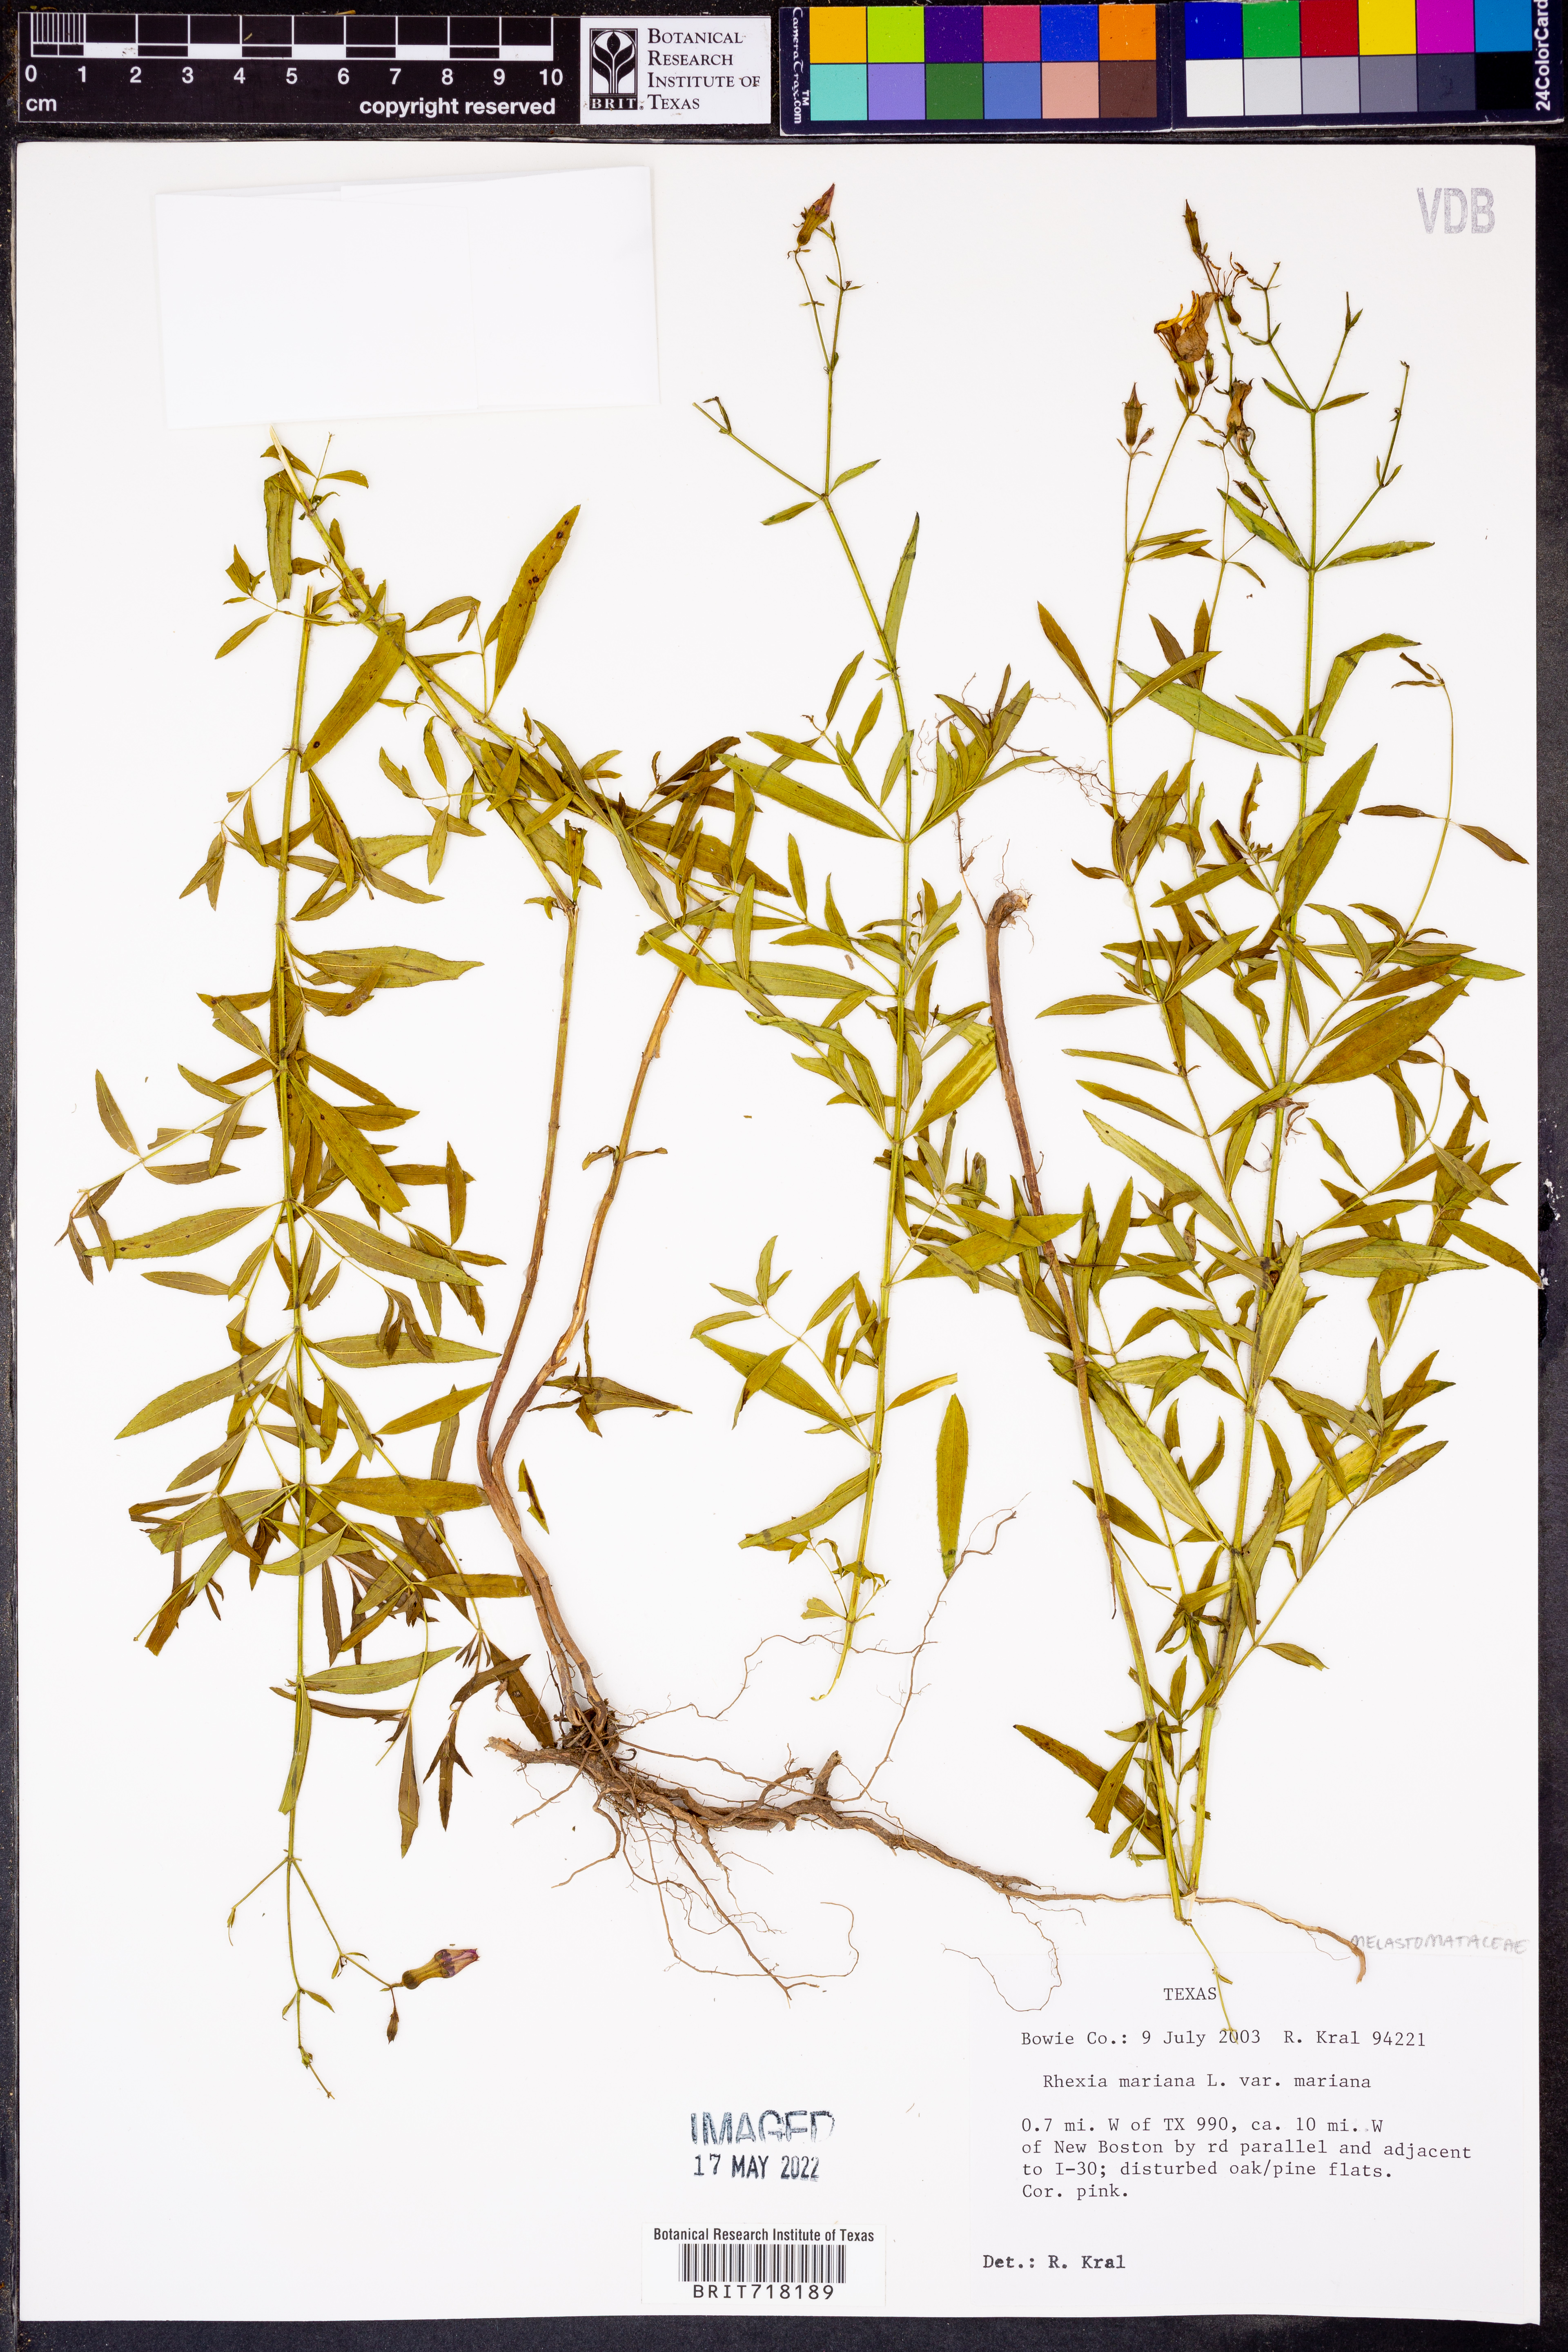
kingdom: Plantae
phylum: Tracheophyta
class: Magnoliopsida
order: Myrtales
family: Melastomataceae
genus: Rhexia
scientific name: Rhexia mariana
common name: Dull meadow-pitcher
